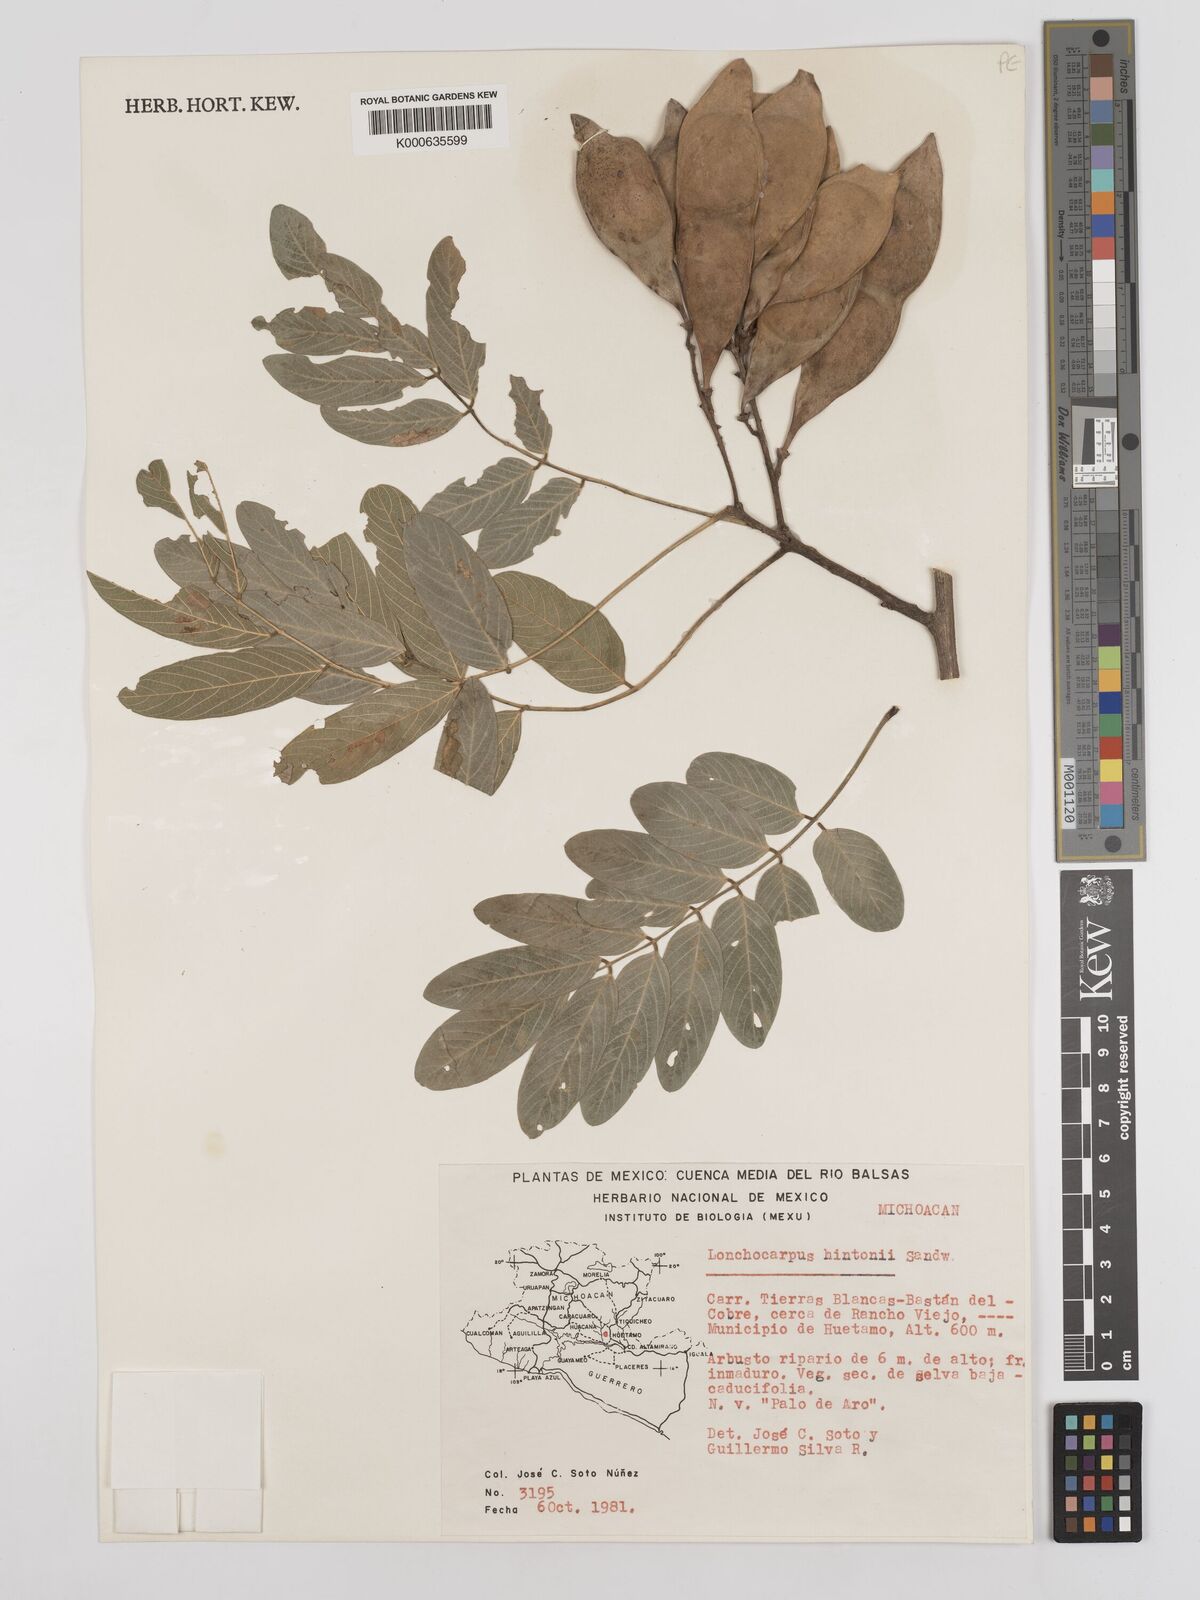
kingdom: Plantae
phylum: Tracheophyta
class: Magnoliopsida
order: Fabales
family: Fabaceae
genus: Lonchocarpus
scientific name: Lonchocarpus hintonii
